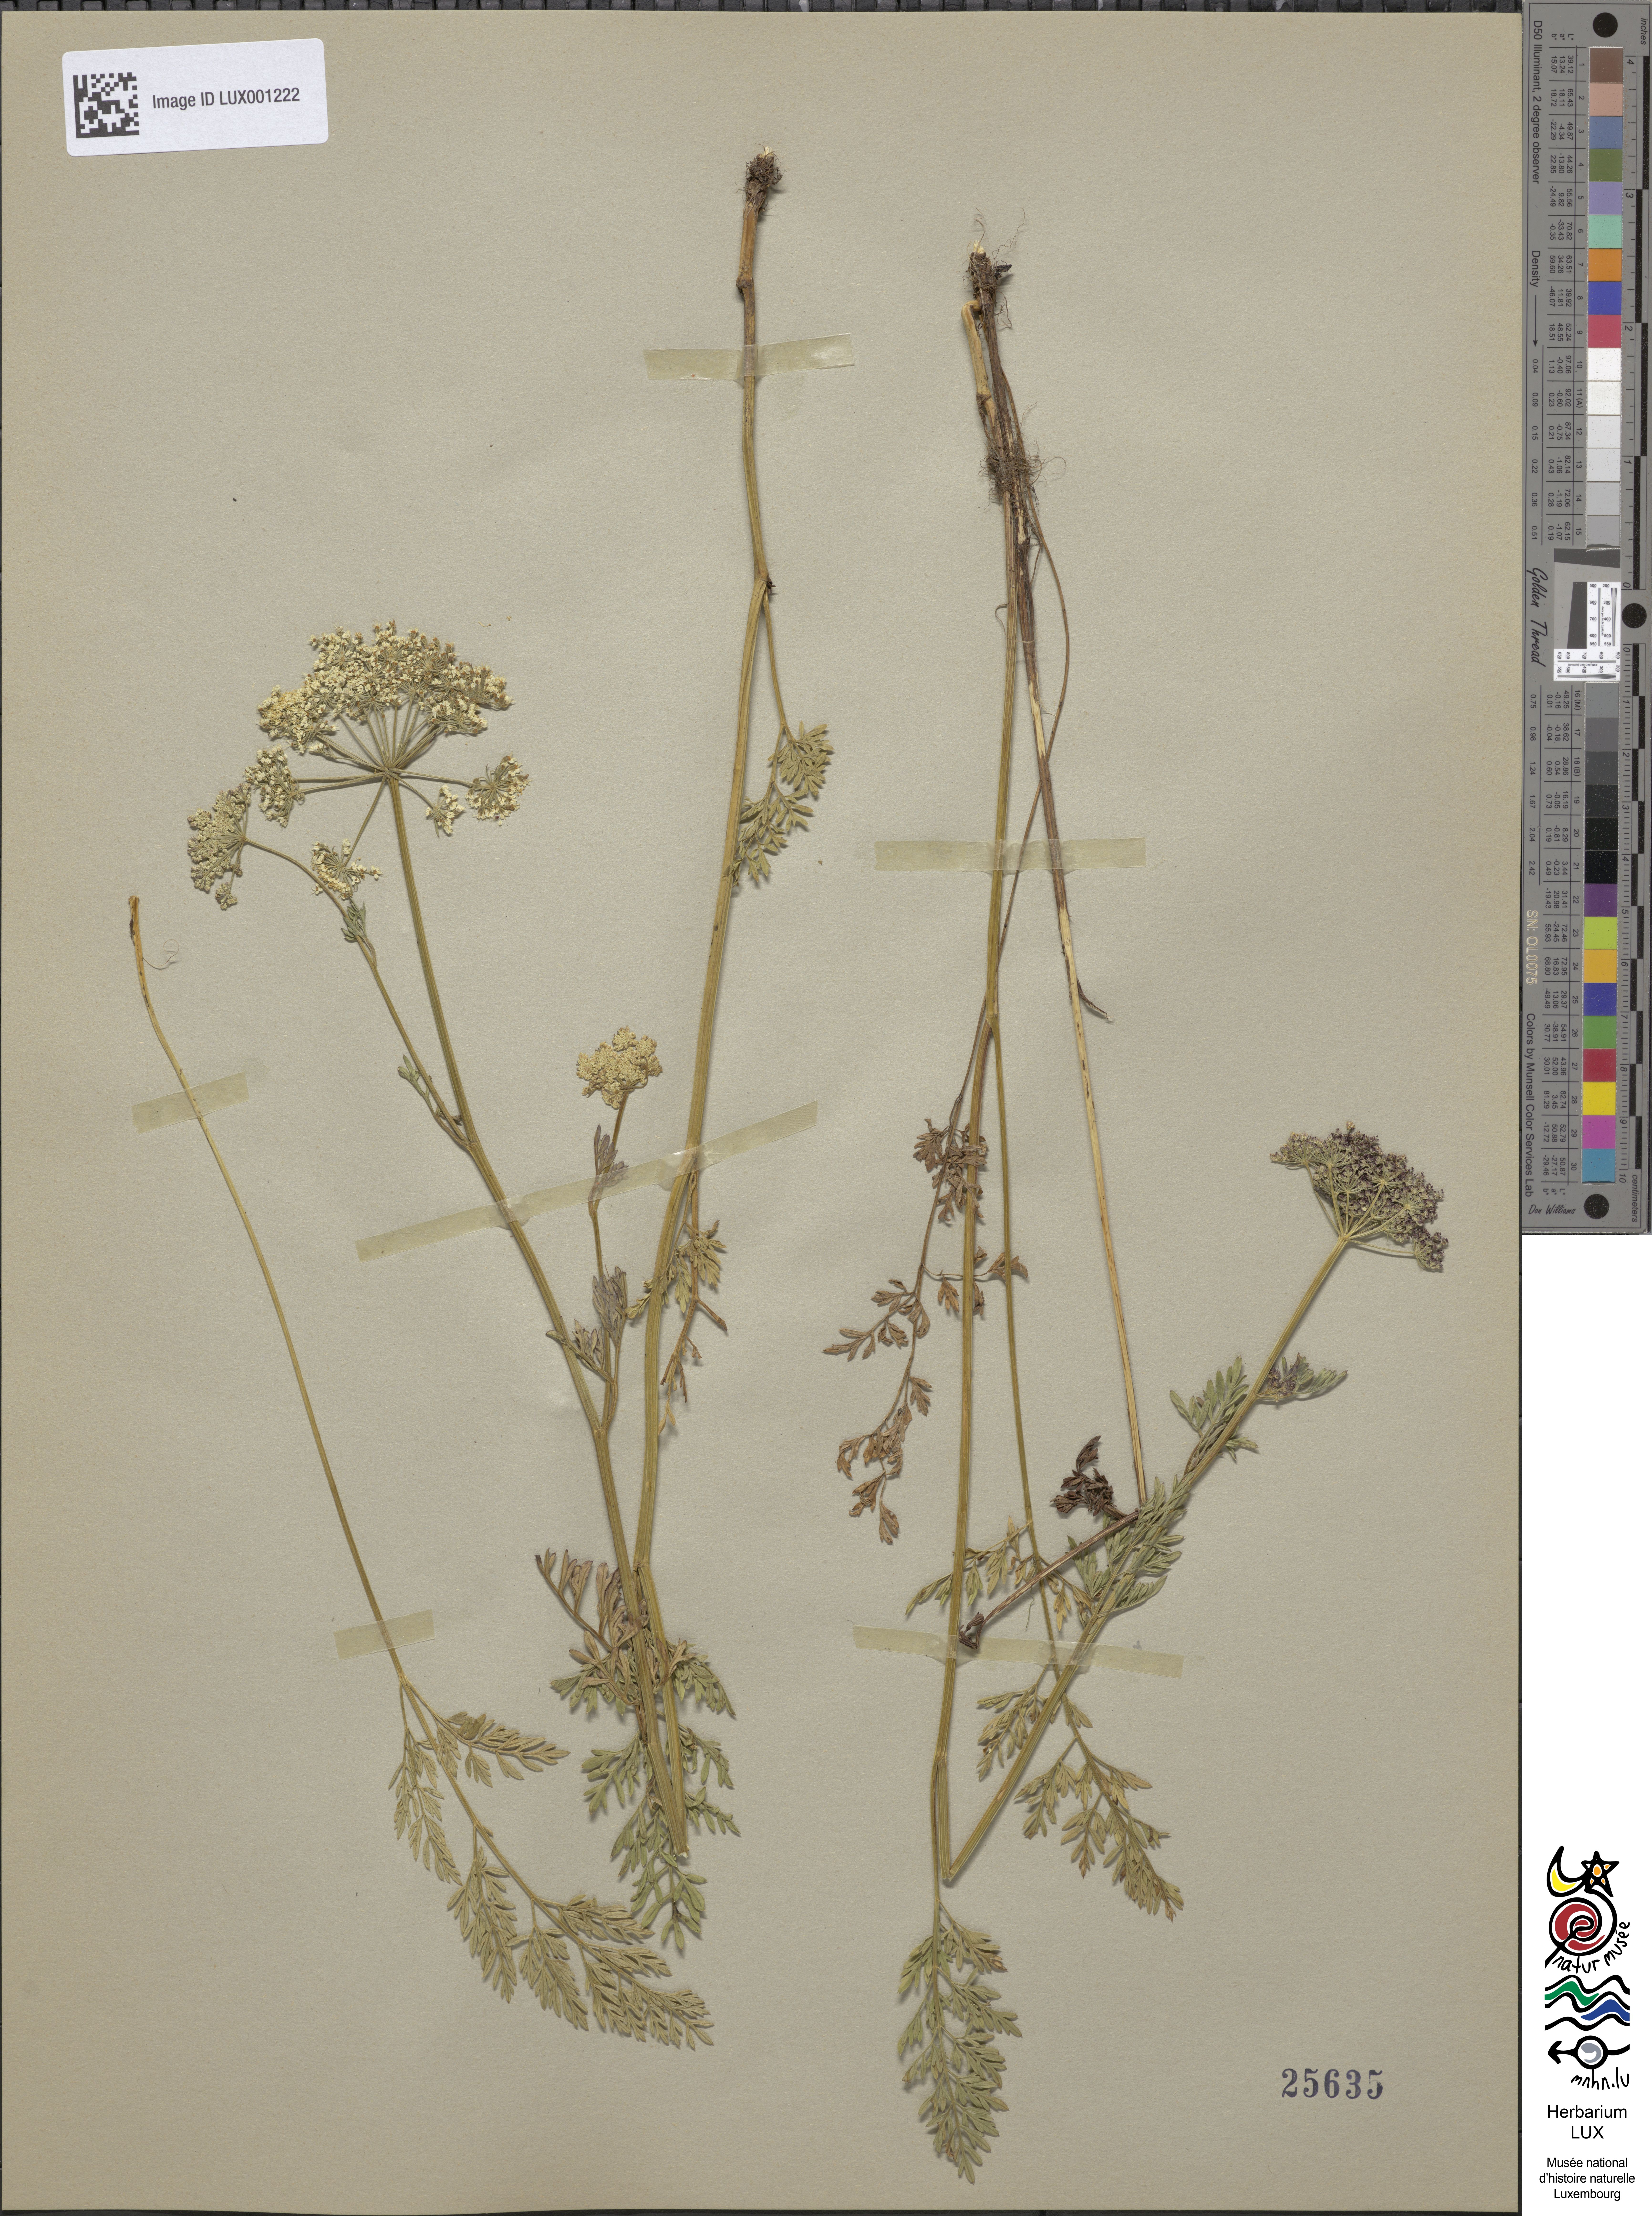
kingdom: Plantae
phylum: Tracheophyta
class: Magnoliopsida
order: Apiales
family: Apiaceae
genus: Selinum
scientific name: Selinum carvifolia
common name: Cambridge milk-parsley
